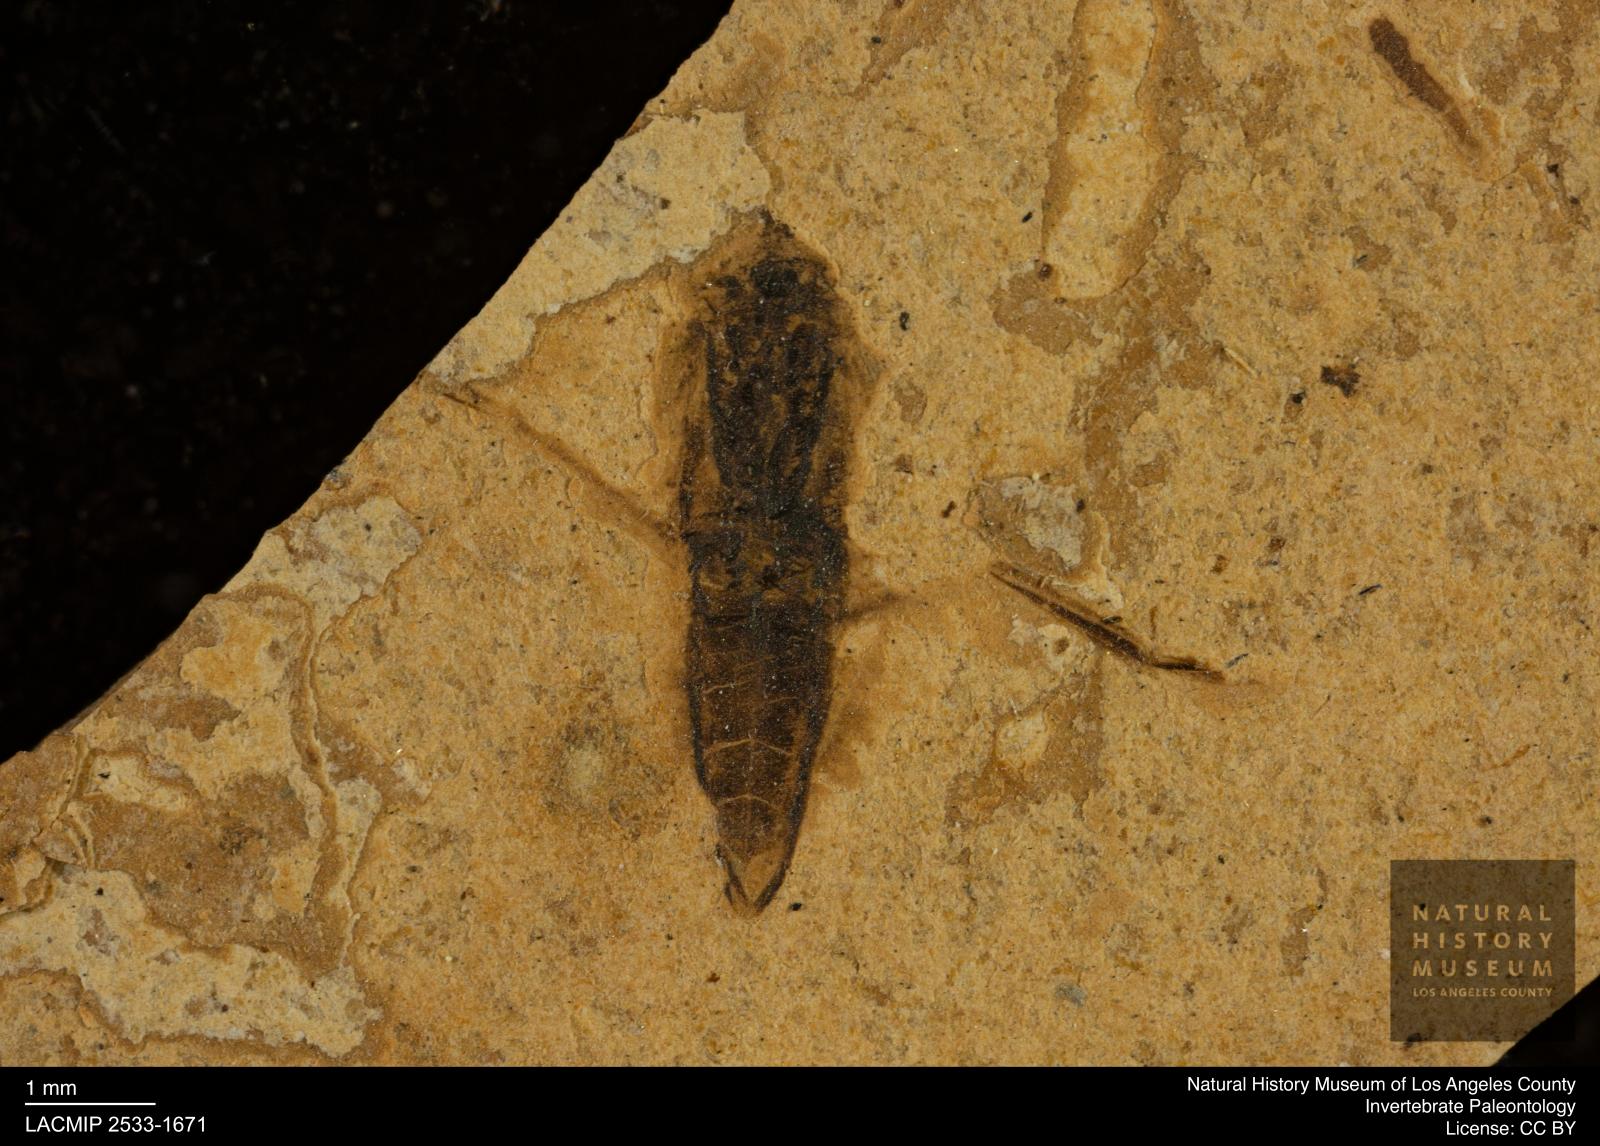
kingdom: Animalia
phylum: Arthropoda
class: Insecta
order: Hemiptera
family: Notonectidae
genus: Notonecta
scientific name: Notonecta
